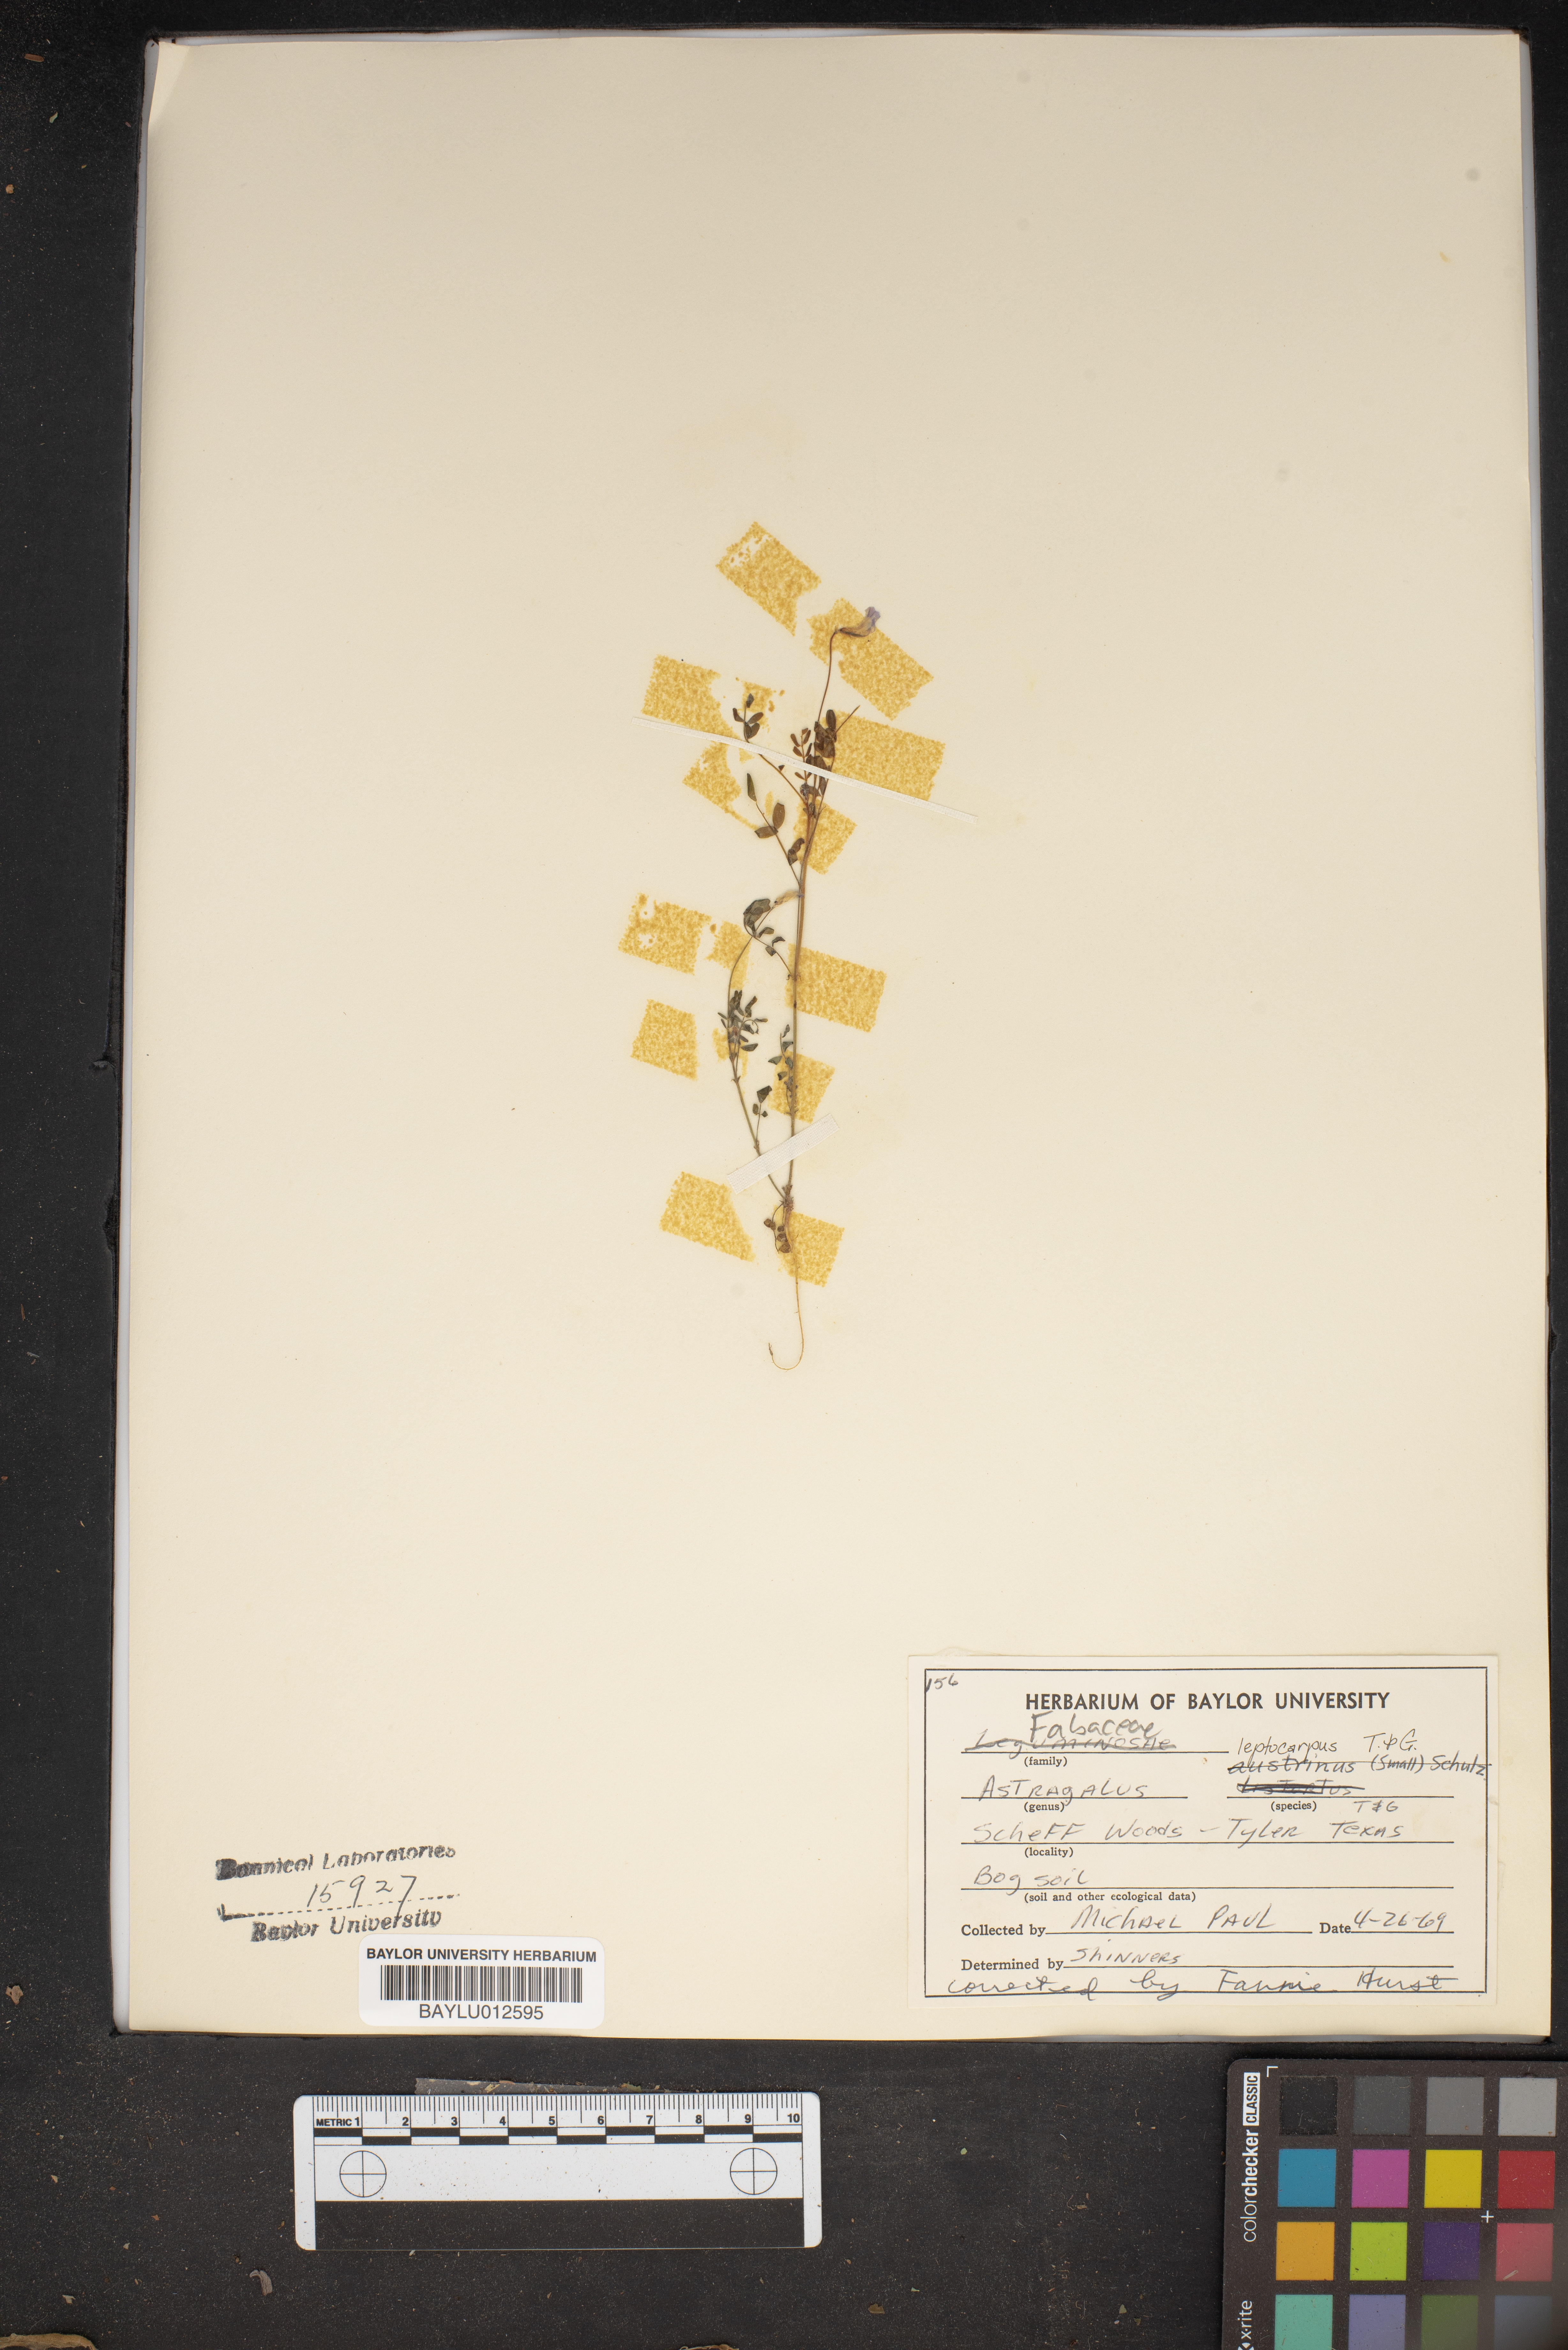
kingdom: Plantae
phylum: Tracheophyta
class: Magnoliopsida
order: Fabales
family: Fabaceae
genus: Astragalus
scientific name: Astragalus nuttallianus
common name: Smallflowered milkvetch
